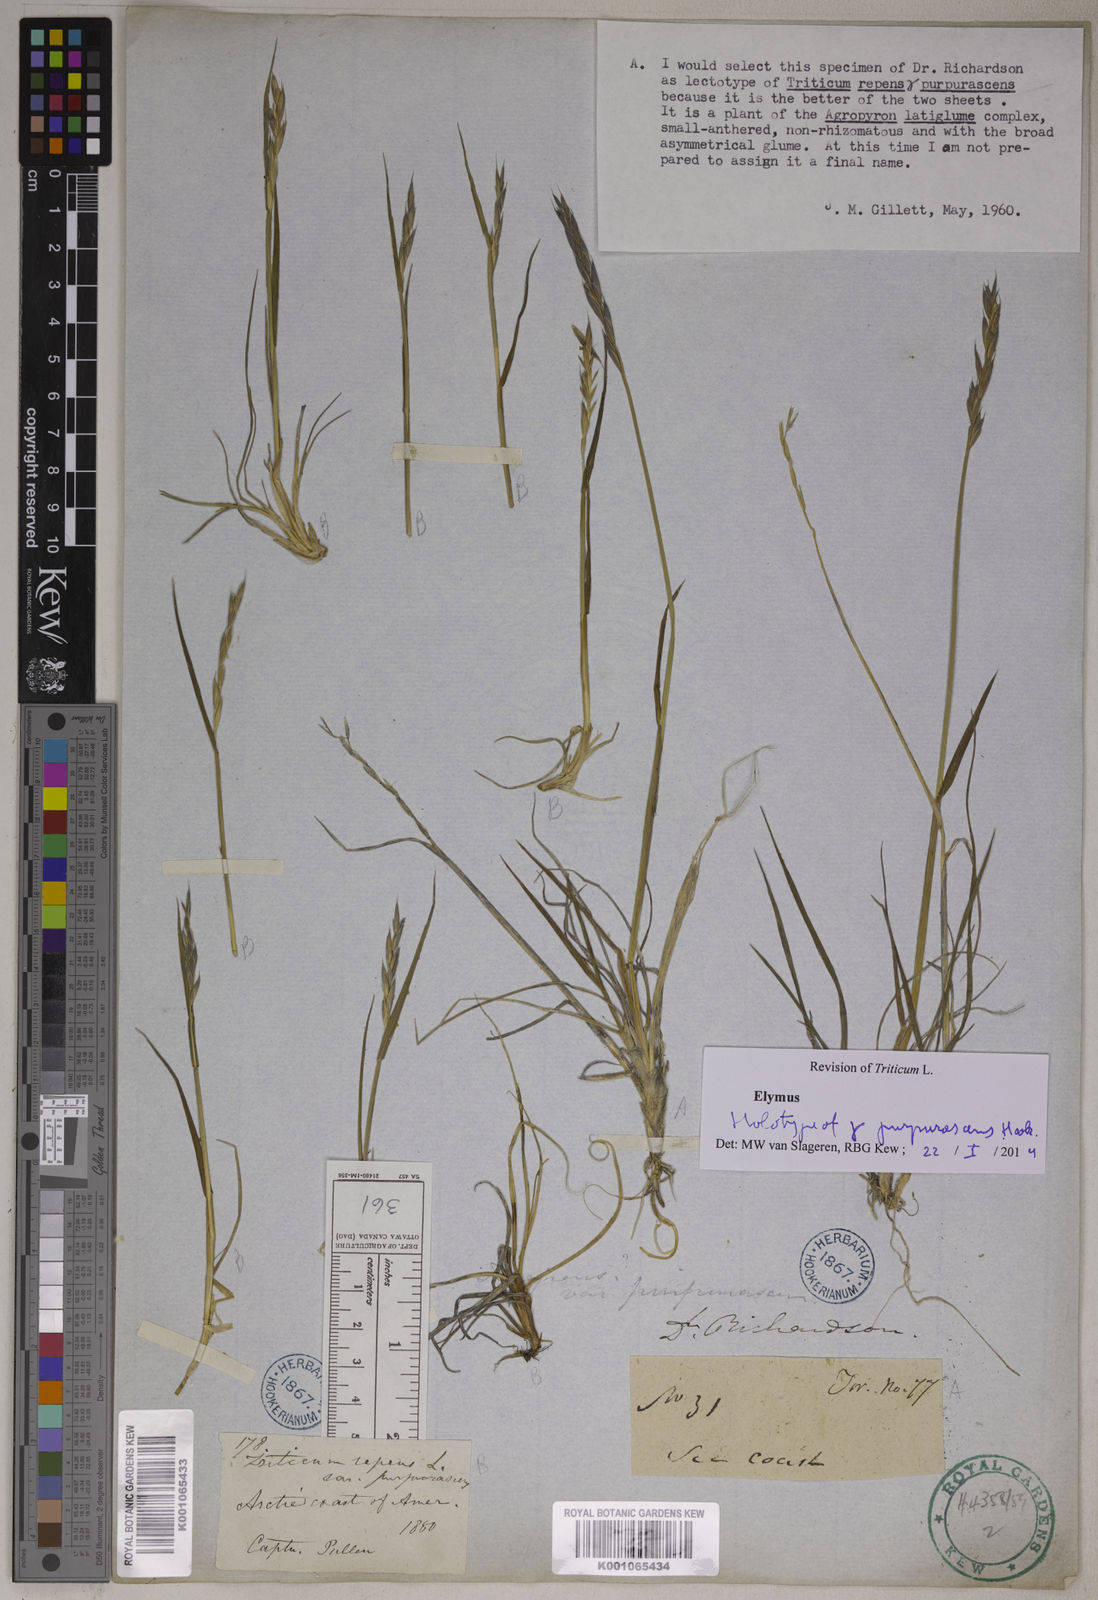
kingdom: Plantae
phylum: Tracheophyta
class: Liliopsida
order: Poales
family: Poaceae
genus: Elymus
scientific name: Elymus repens
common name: Quackgrass
